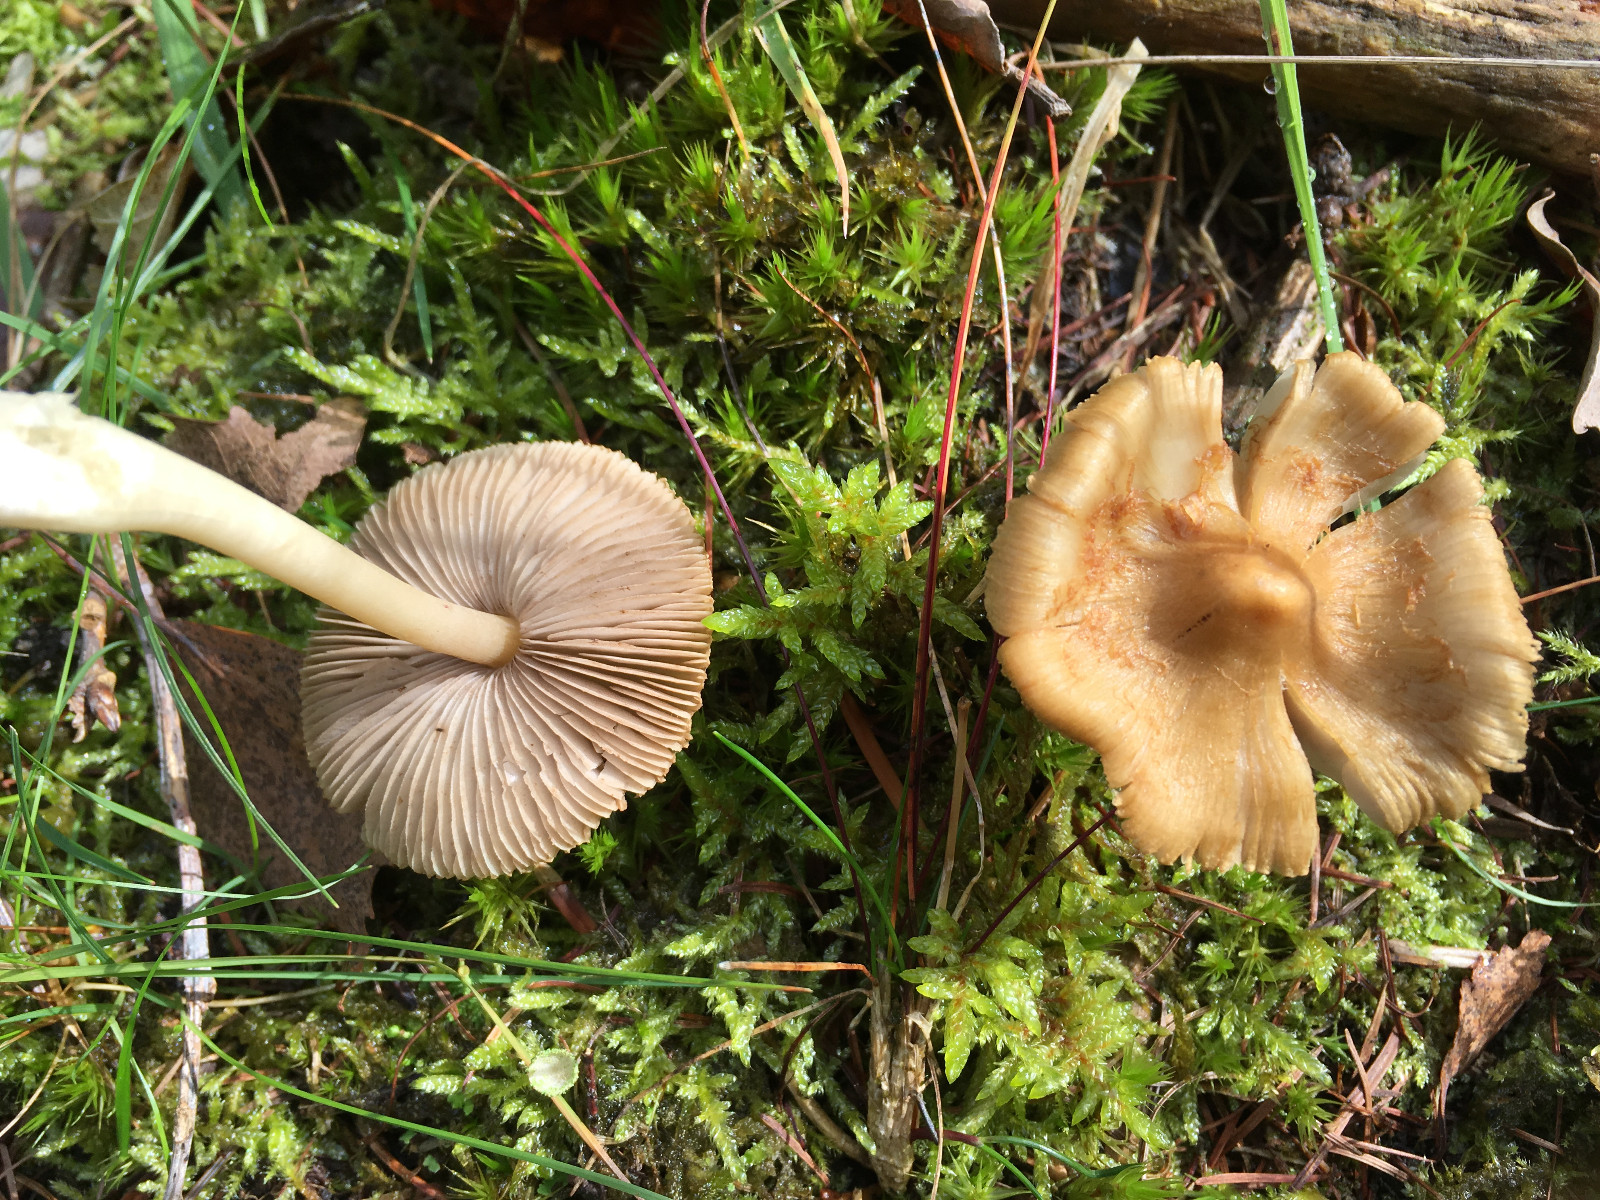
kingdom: Fungi
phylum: Basidiomycota
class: Agaricomycetes
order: Agaricales
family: Inocybaceae
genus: Inocybe
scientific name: Inocybe
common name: trævlhat
